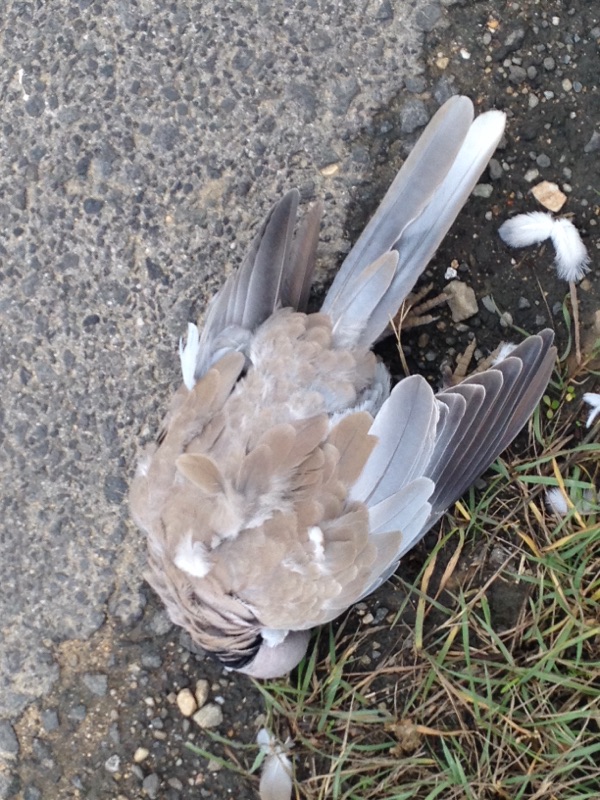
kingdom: Animalia
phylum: Chordata
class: Aves
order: Columbiformes
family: Columbidae
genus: Streptopelia
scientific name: Streptopelia decaocto
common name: Eurasian collared dove
